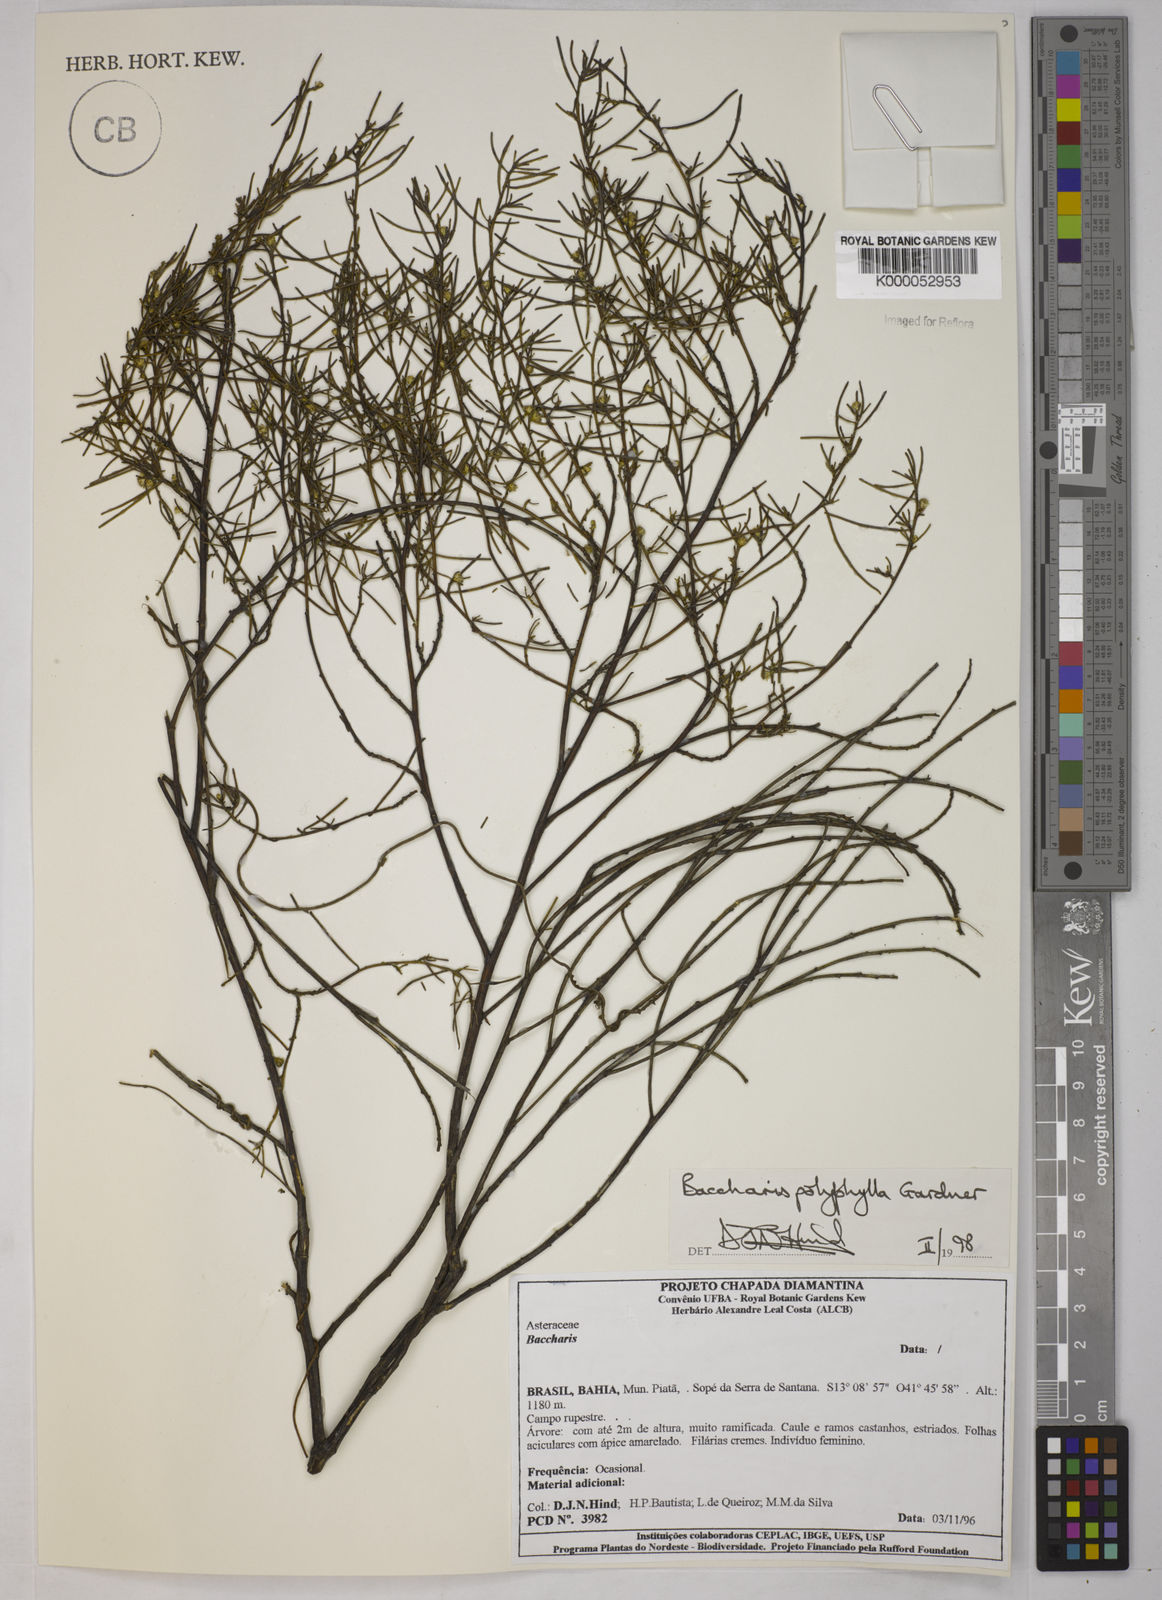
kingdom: Plantae
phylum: Tracheophyta
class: Magnoliopsida
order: Asterales
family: Asteraceae
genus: Baccharis
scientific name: Baccharis polyphylla
